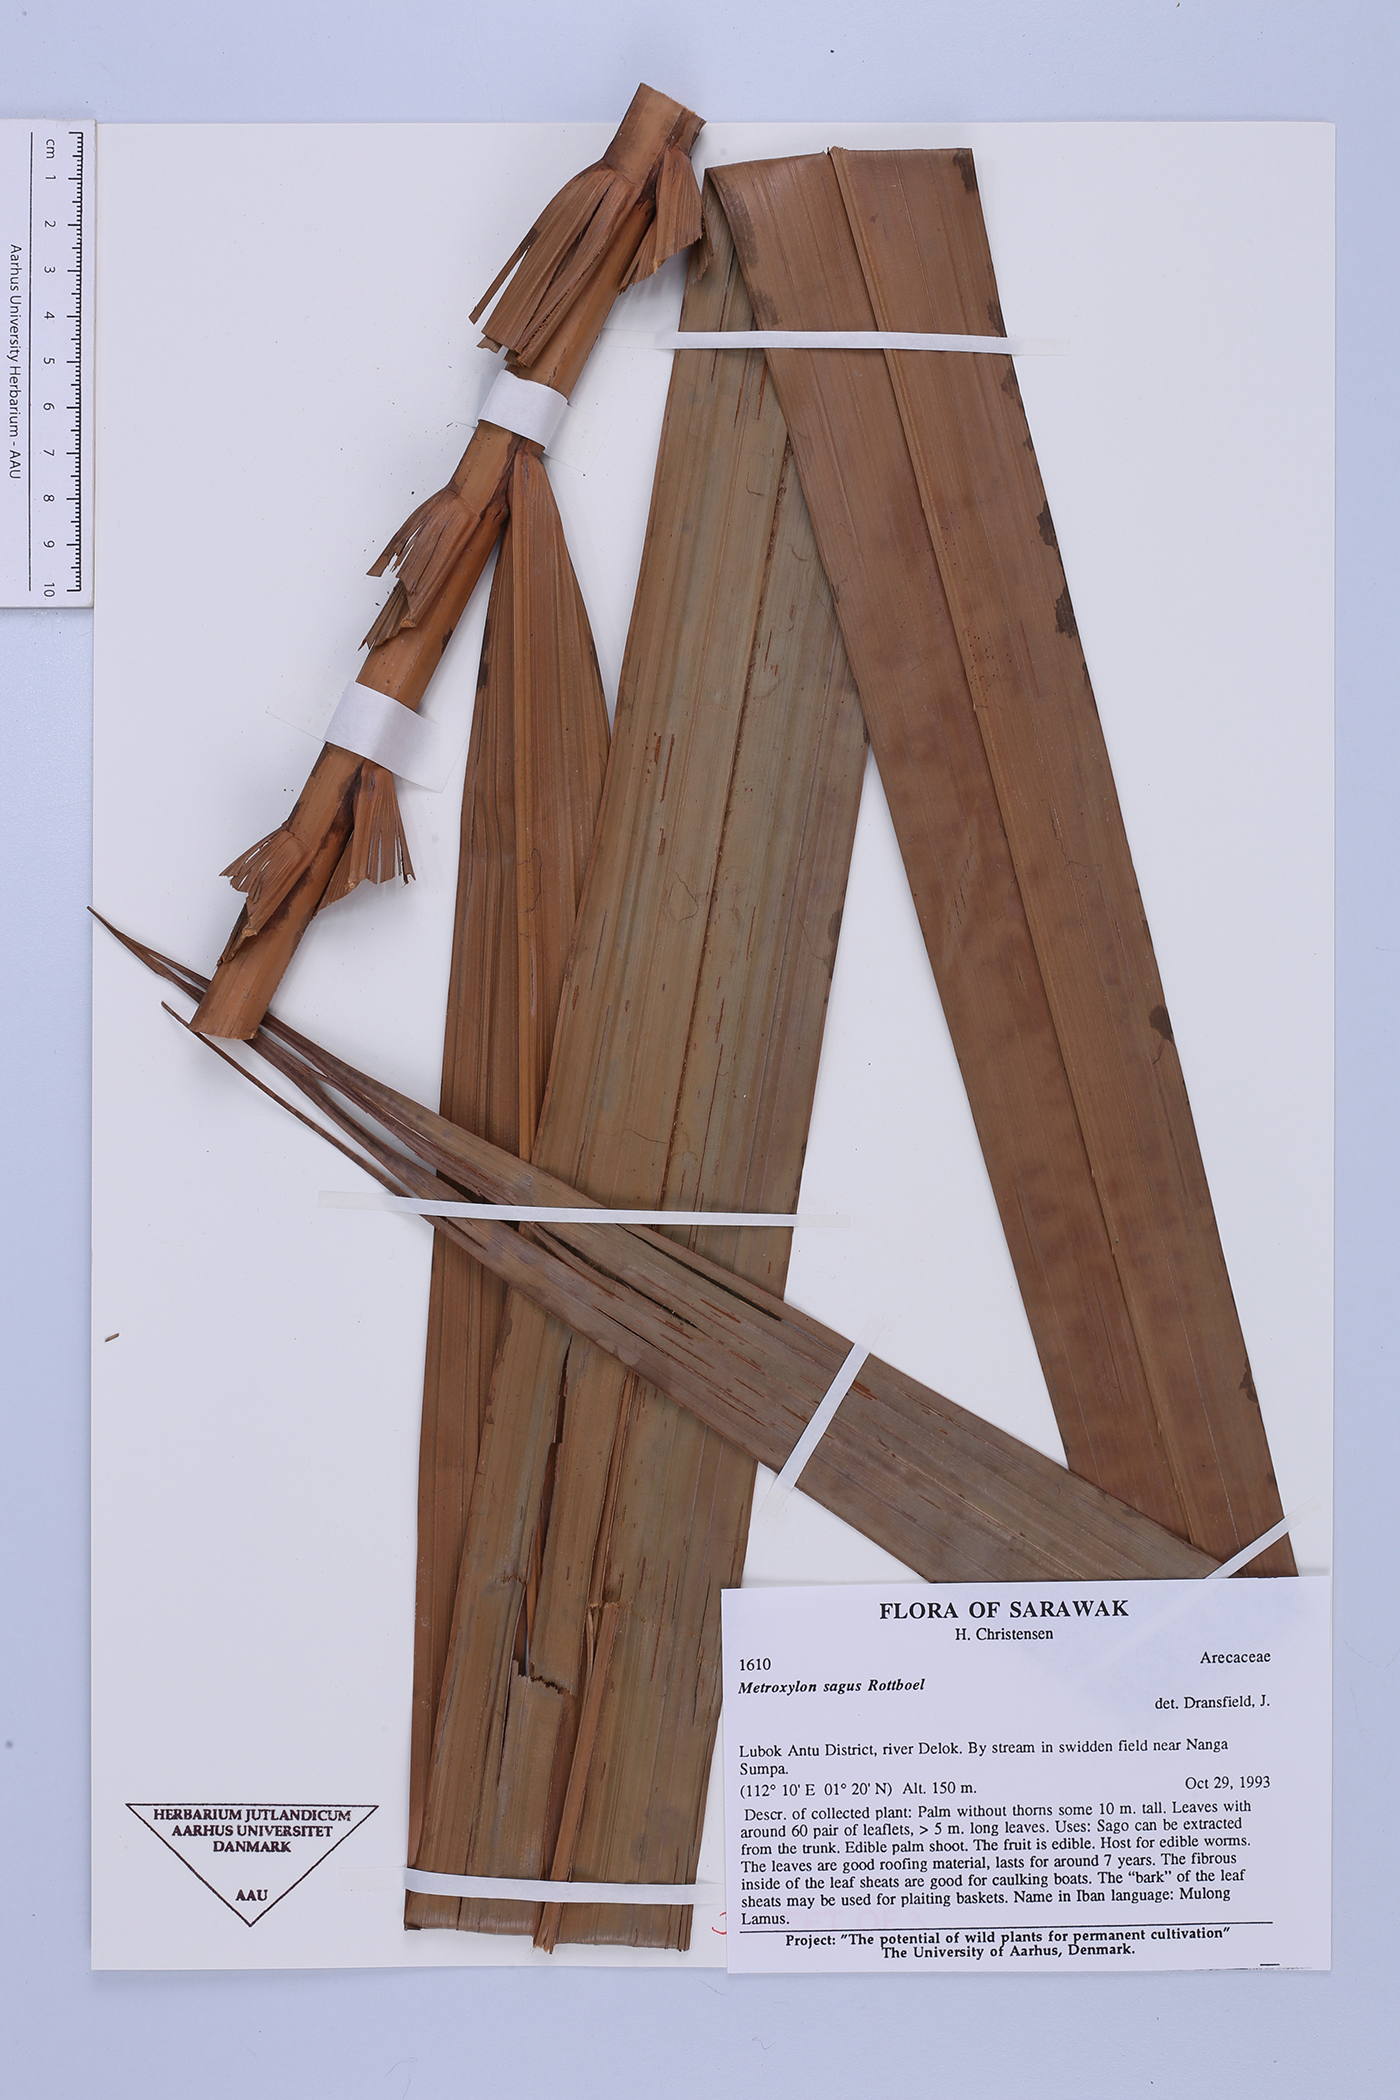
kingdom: Plantae
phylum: Tracheophyta
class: Liliopsida
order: Arecales
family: Arecaceae
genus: Metroxylon
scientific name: Metroxylon sagu
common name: Sago palm
